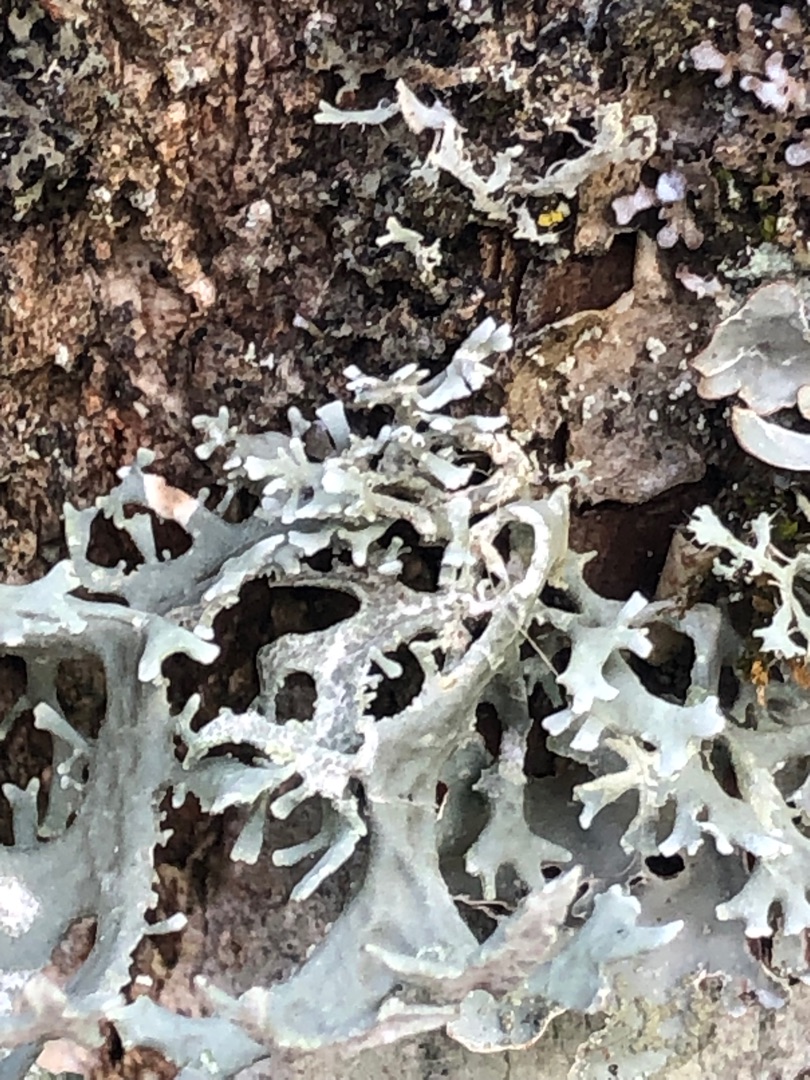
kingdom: Fungi
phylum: Ascomycota
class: Lecanoromycetes
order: Lecanorales
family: Parmeliaceae
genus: Evernia
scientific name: Evernia prunastri
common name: Almindelig slåenlav
